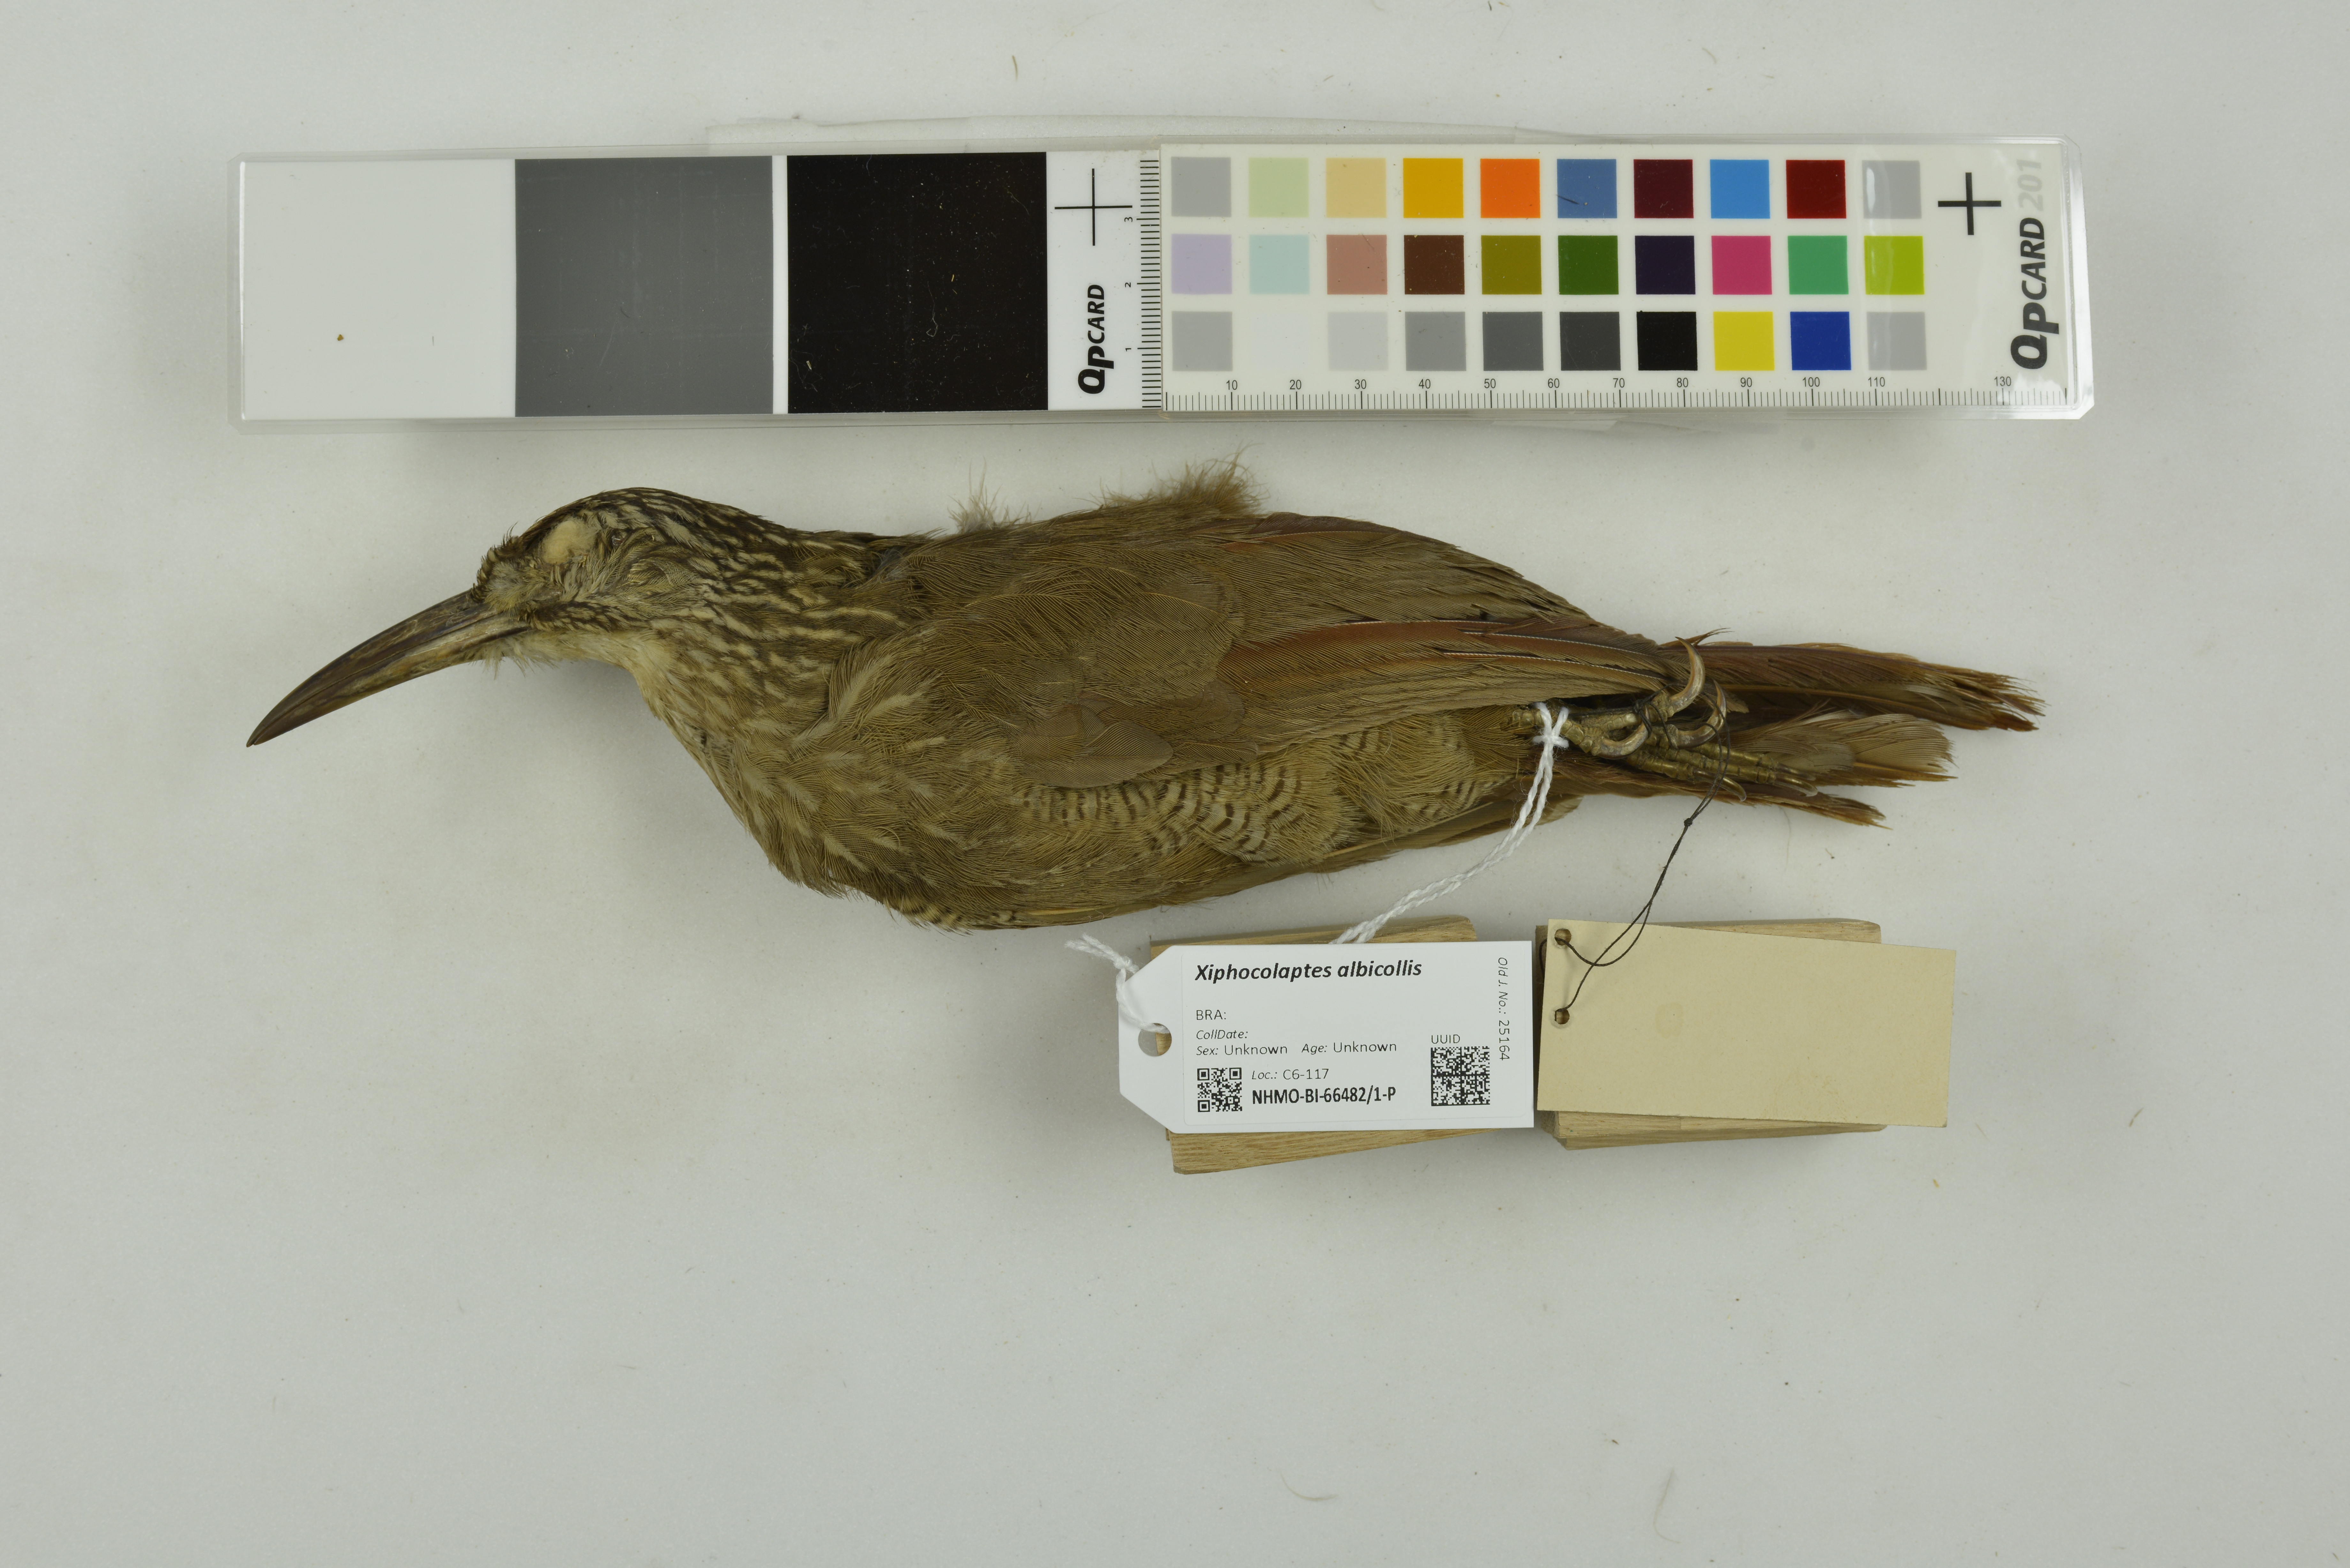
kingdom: Animalia
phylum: Chordata
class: Aves
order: Passeriformes
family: Furnariidae
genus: Xiphocolaptes
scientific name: Xiphocolaptes albicollis
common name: White-throated woodcreeper
